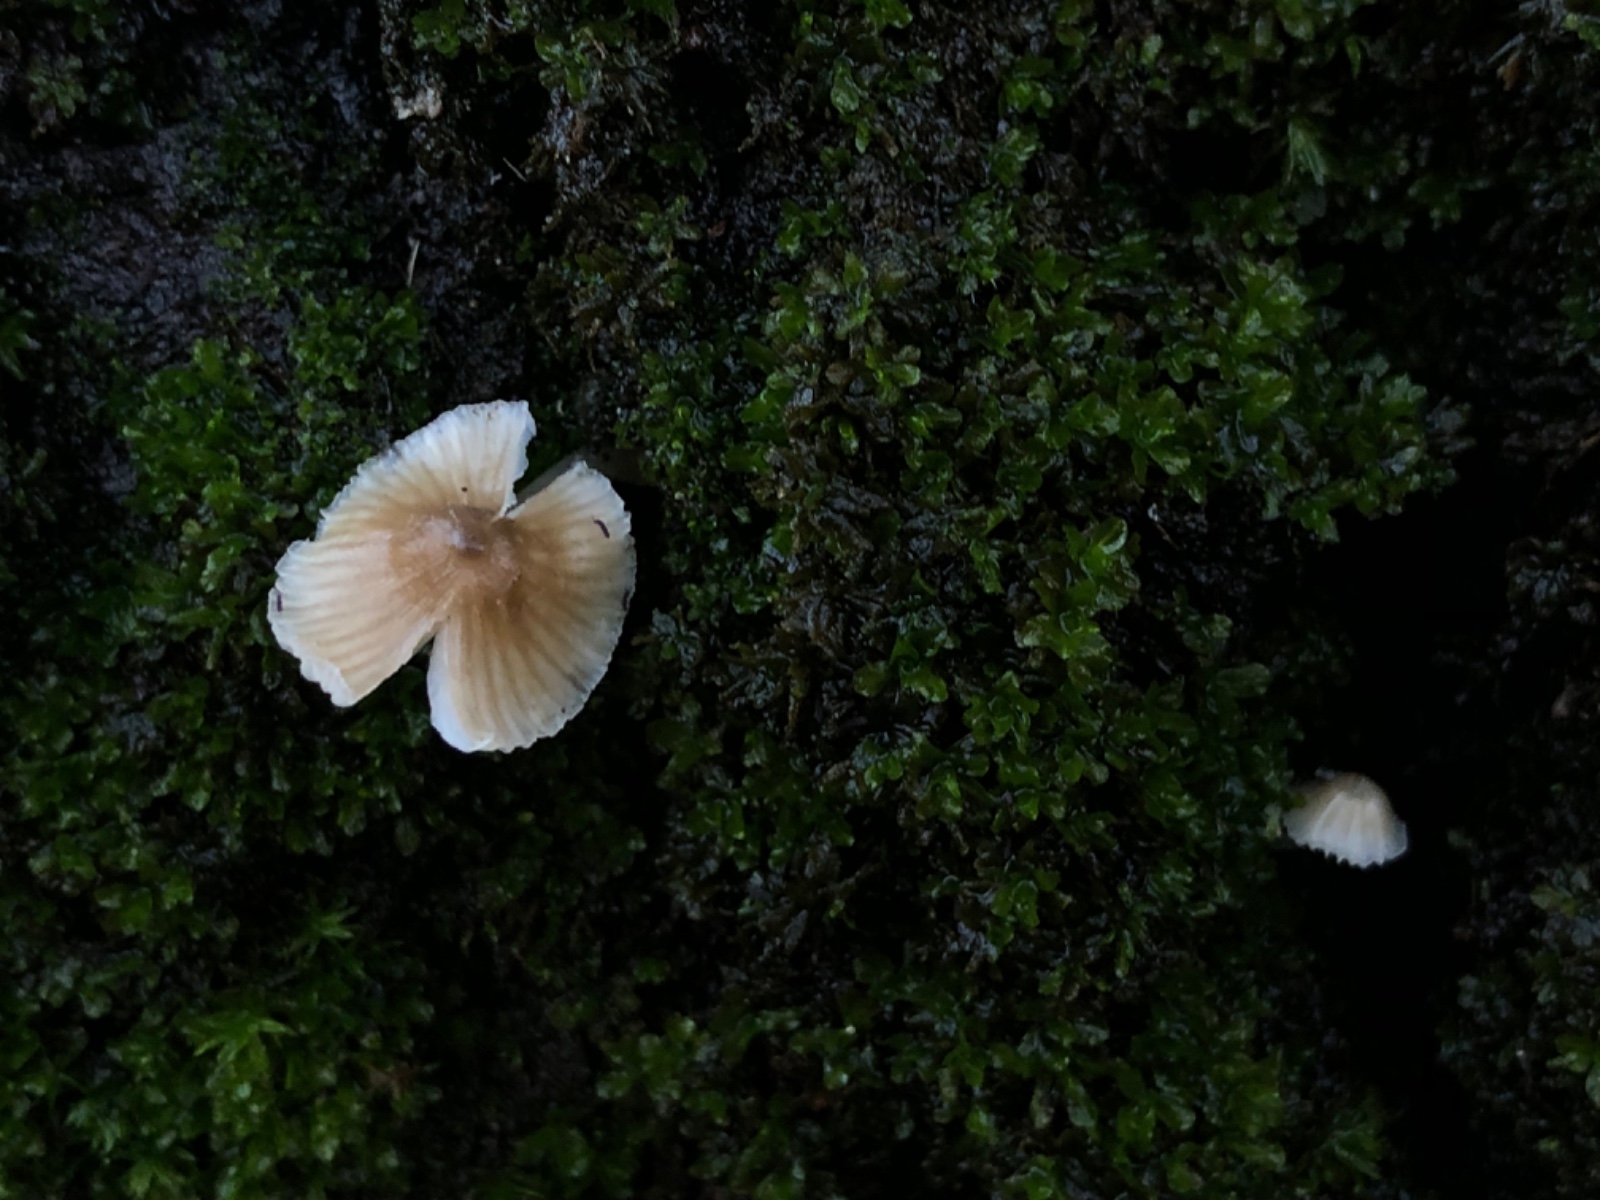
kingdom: Fungi
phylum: Basidiomycota
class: Agaricomycetes
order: Agaricales
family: Porotheleaceae
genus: Phloeomana
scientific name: Phloeomana hiemalis
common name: sen huesvamp
